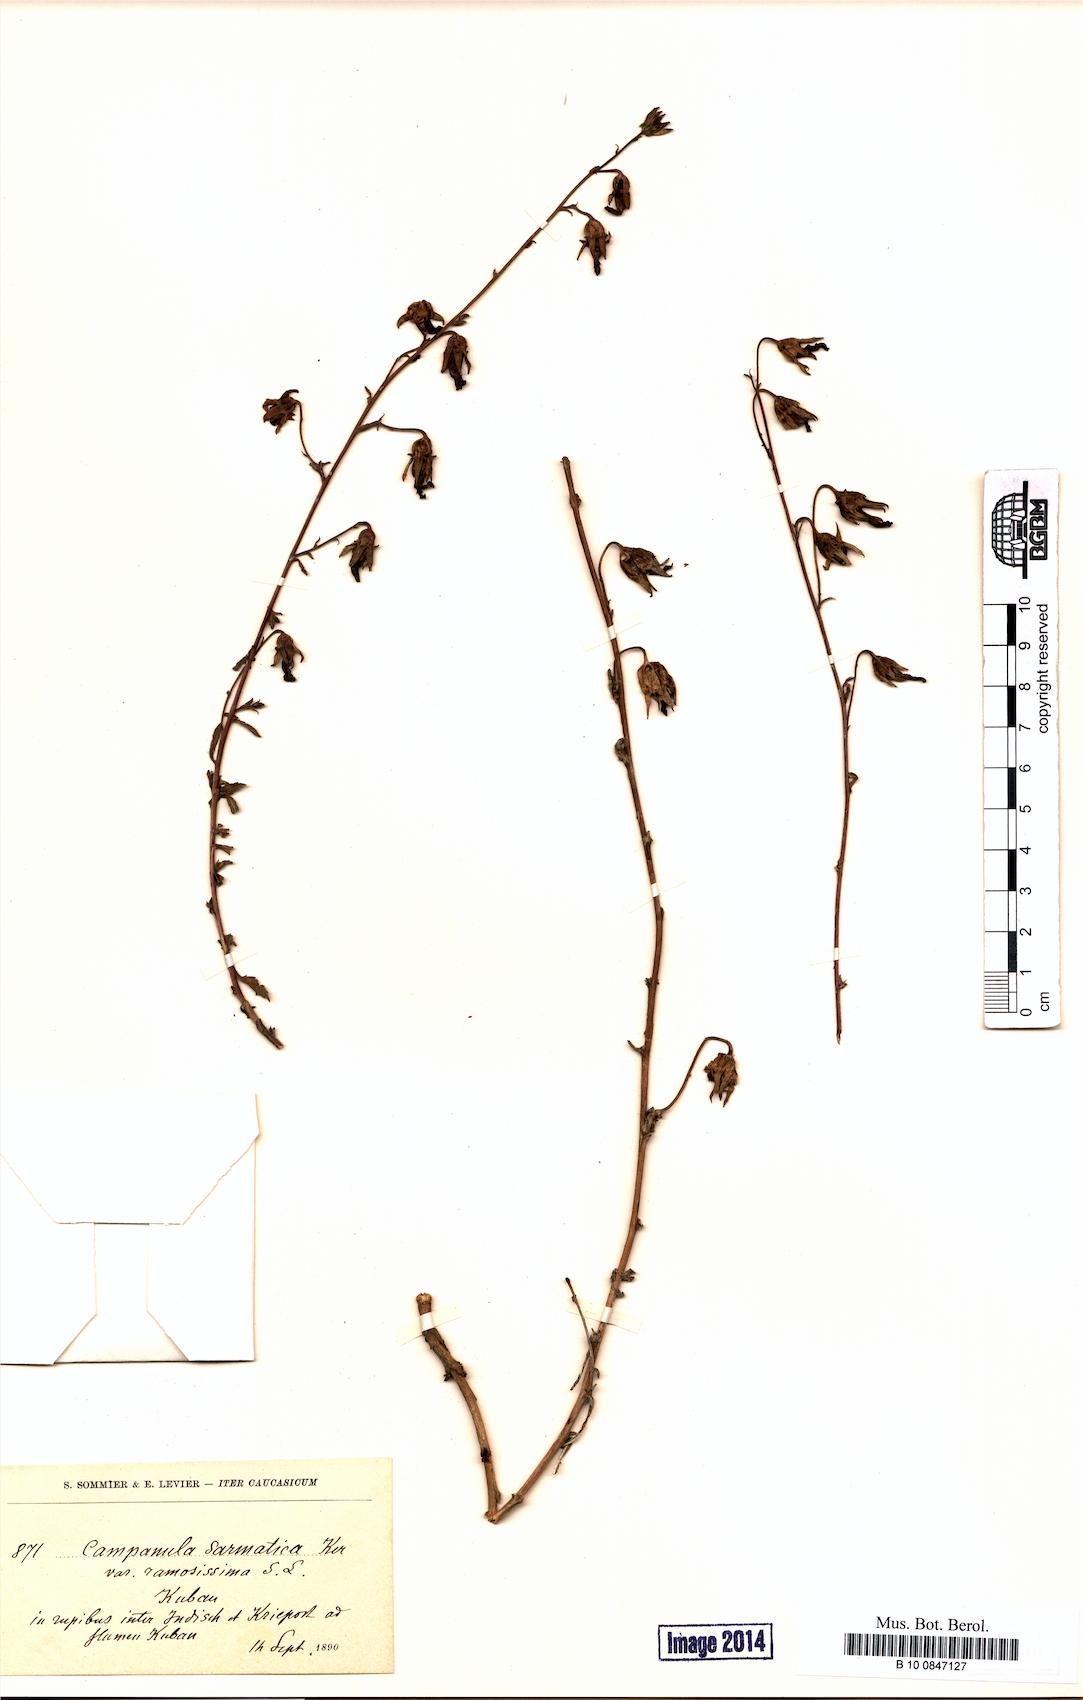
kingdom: Plantae
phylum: Tracheophyta
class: Magnoliopsida
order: Asterales
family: Campanulaceae
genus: Campanula
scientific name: Campanula sarmatica
